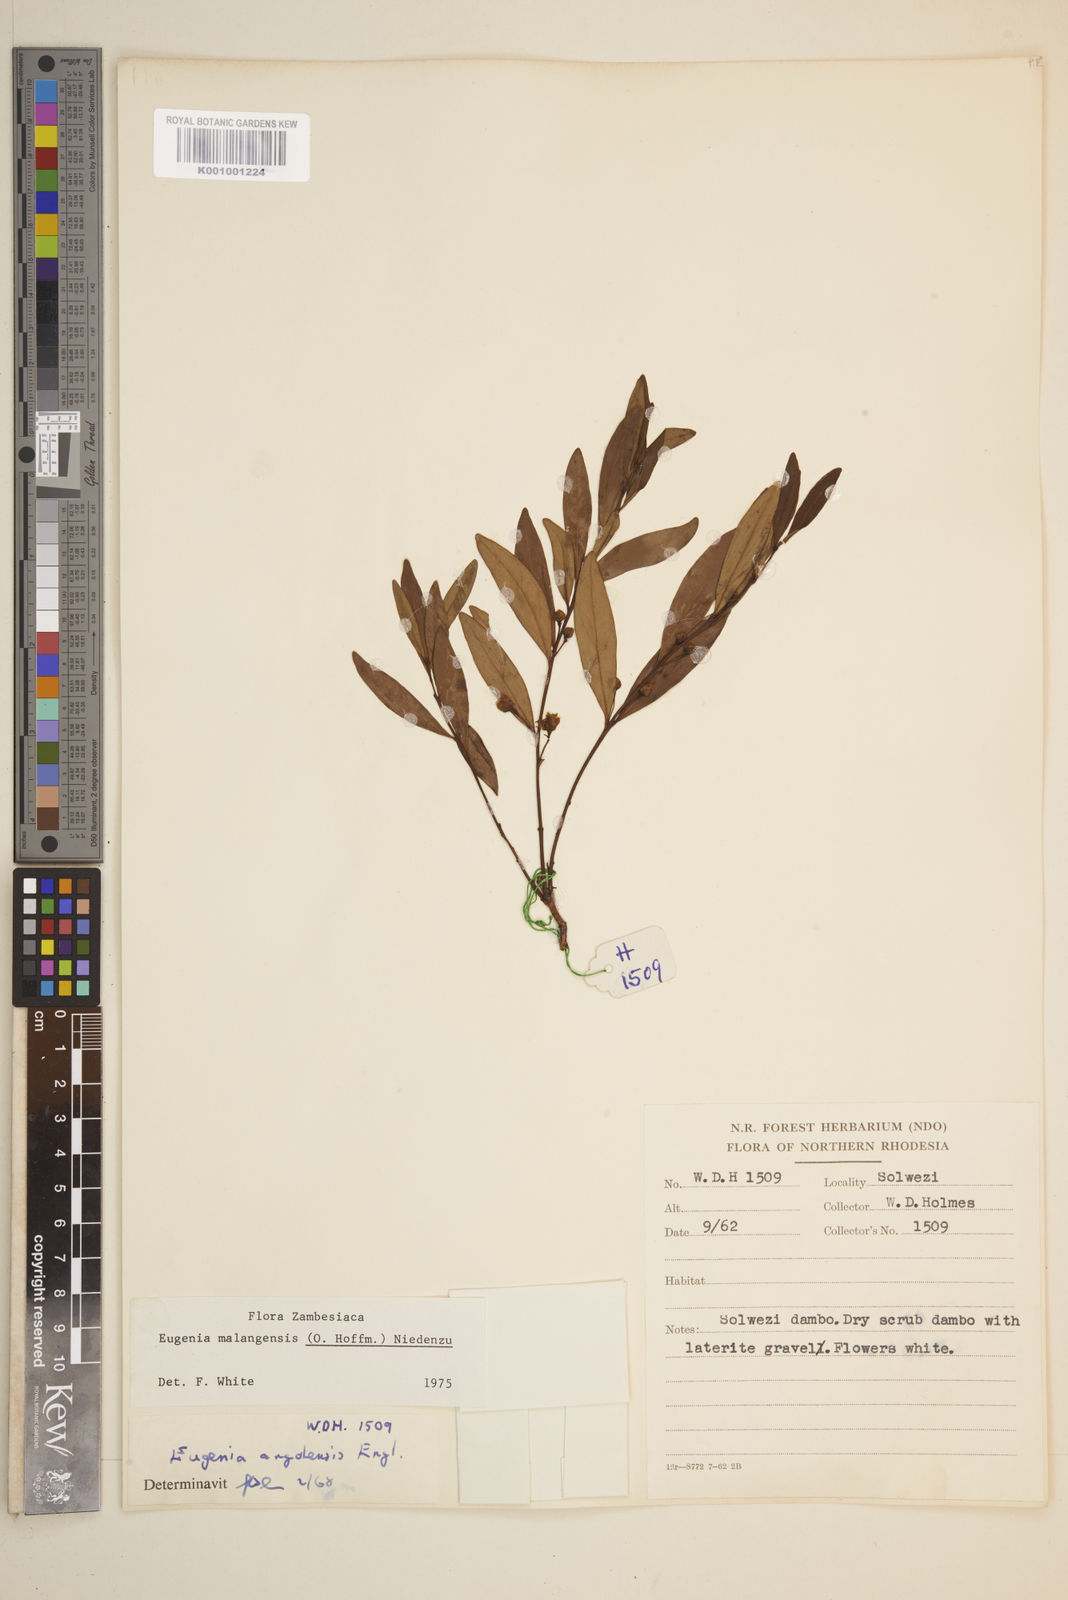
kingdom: Plantae
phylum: Tracheophyta
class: Magnoliopsida
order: Myrtales
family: Myrtaceae
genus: Eugenia
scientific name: Eugenia malangensis
